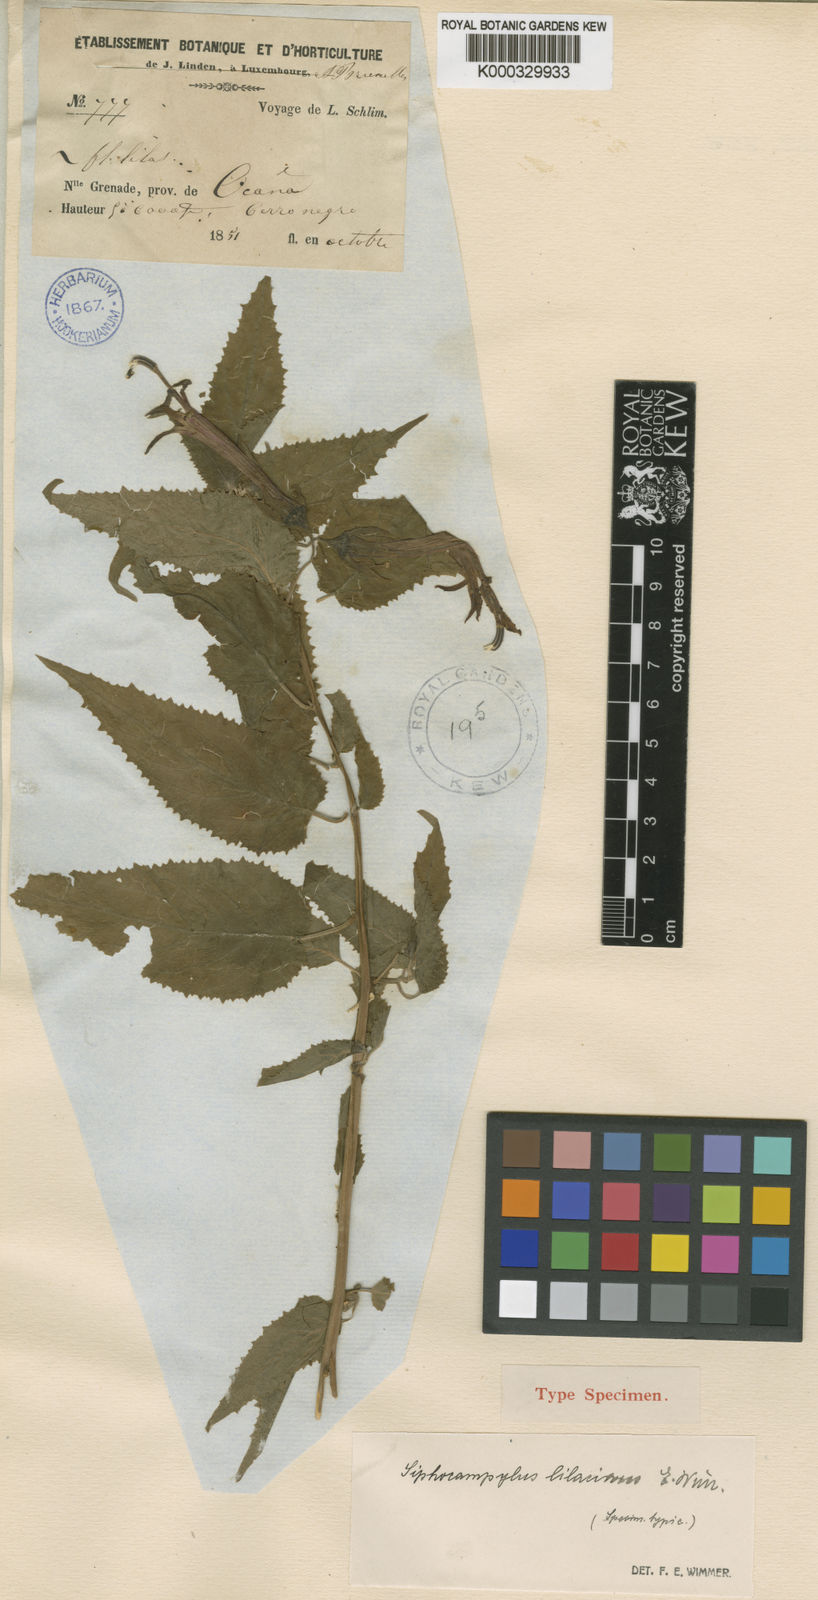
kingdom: Plantae
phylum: Tracheophyta
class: Magnoliopsida
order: Asterales
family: Campanulaceae
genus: Siphocampylus
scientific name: Siphocampylus rectiflorus
